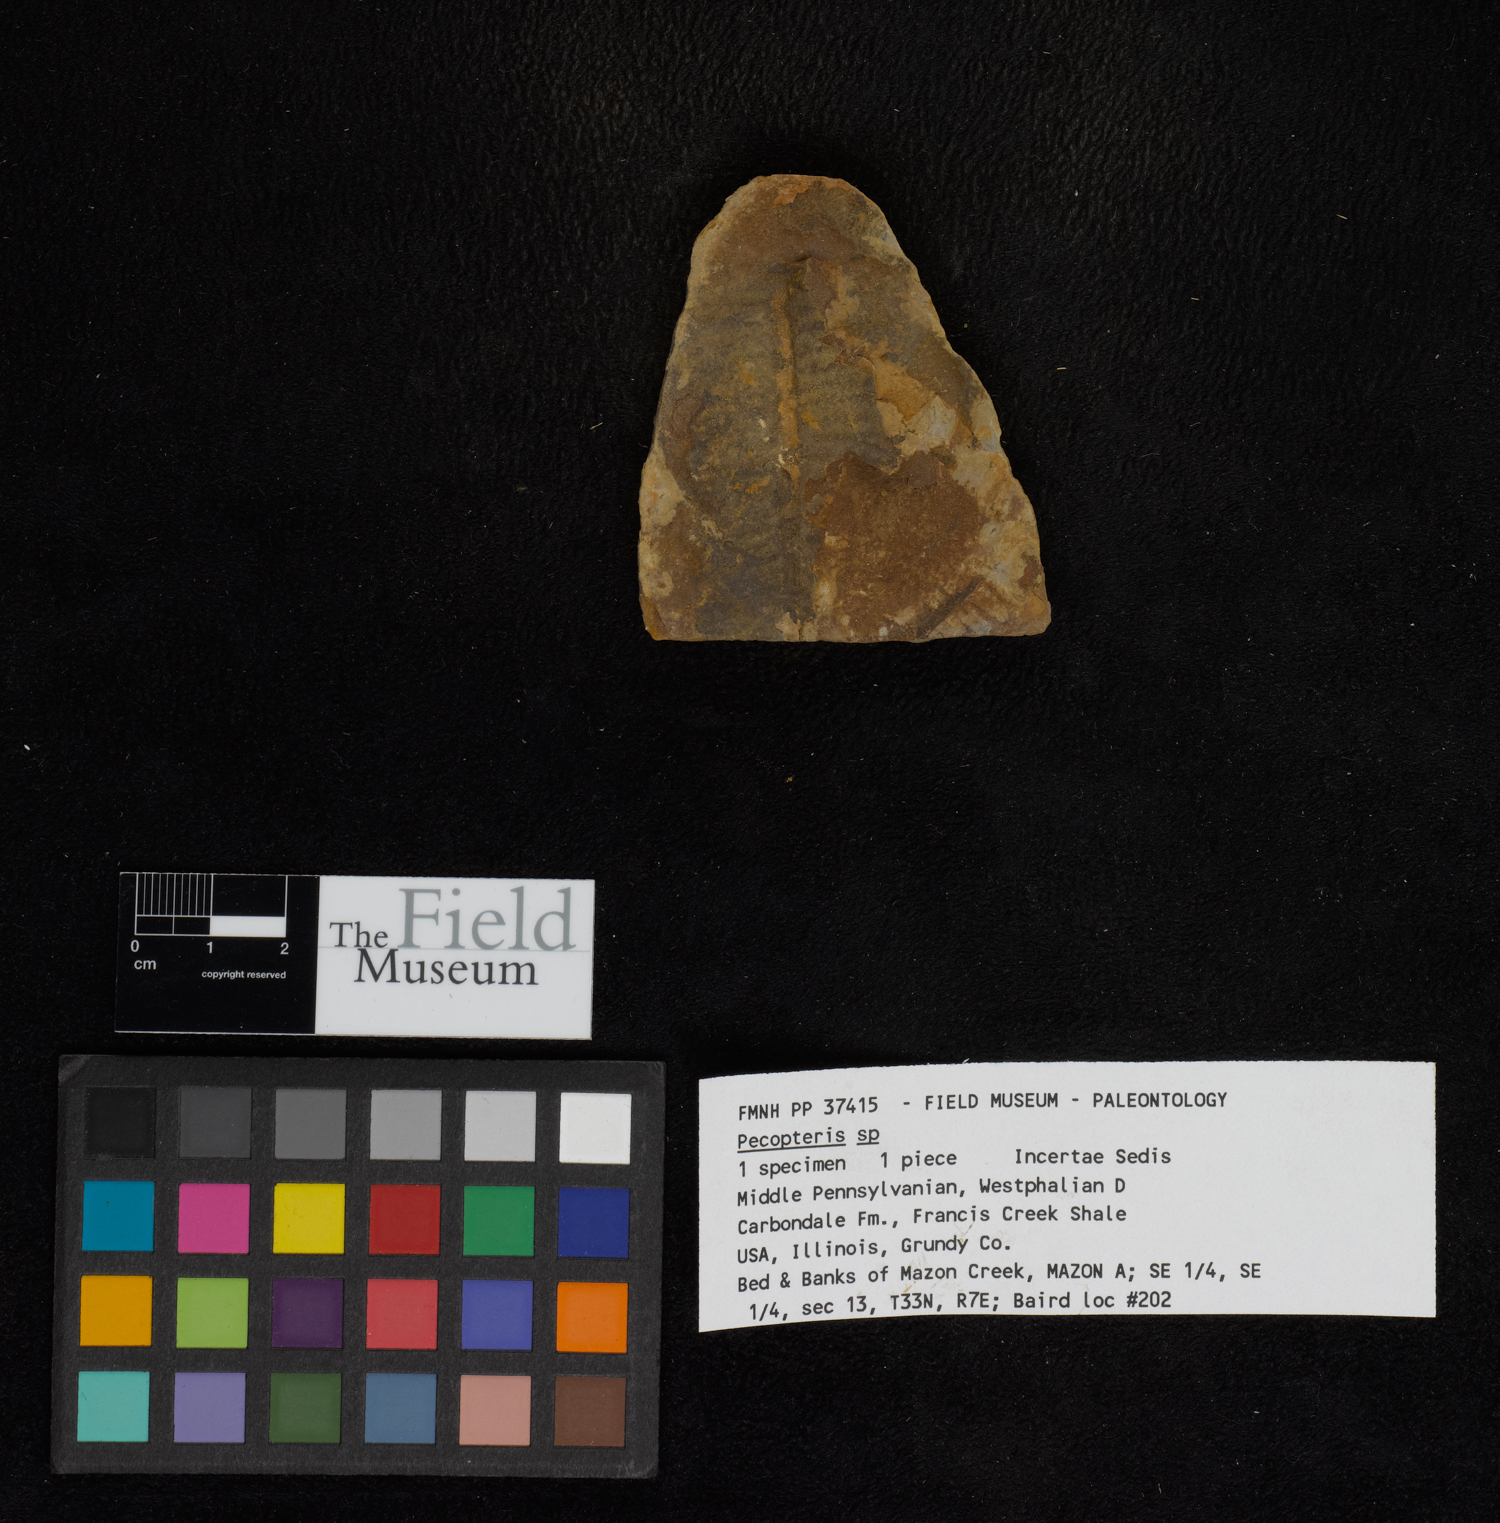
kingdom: Plantae
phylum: Tracheophyta
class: Polypodiopsida
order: Marattiales
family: Asterothecaceae
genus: Pecopteris
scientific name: Pecopteris
